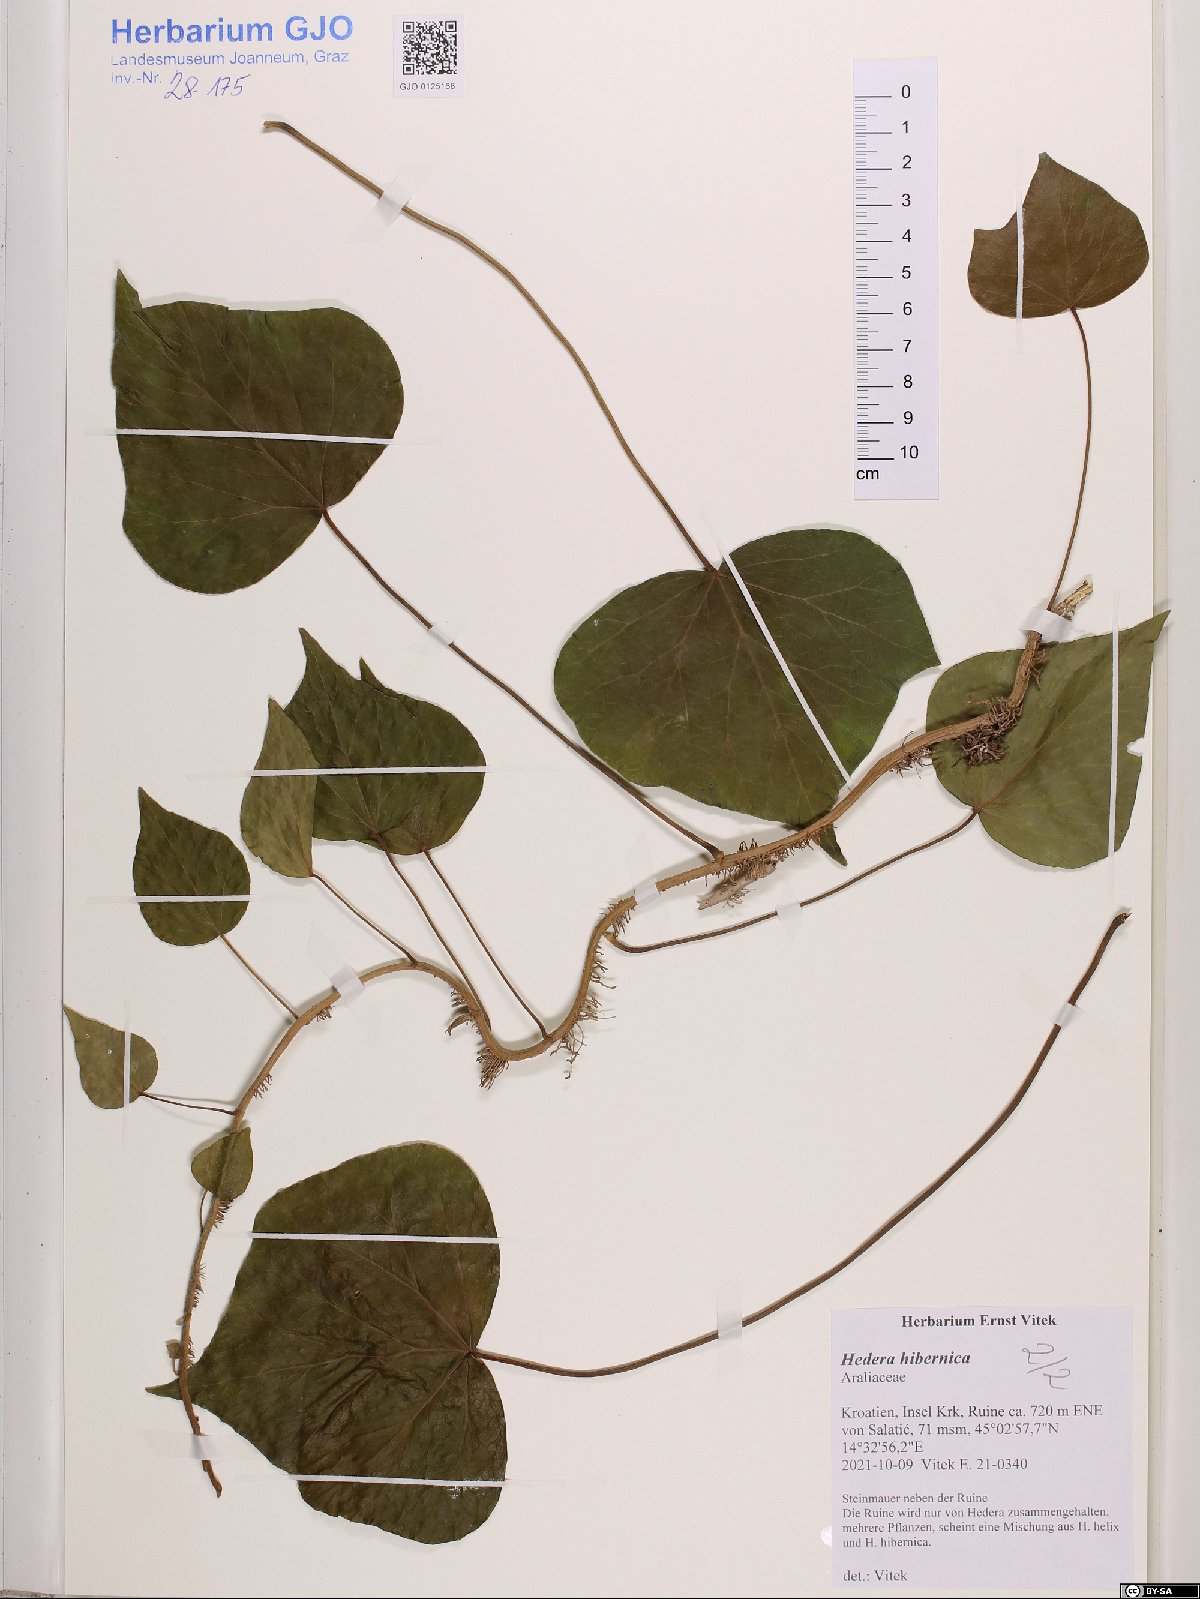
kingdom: Plantae
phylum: Tracheophyta
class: Magnoliopsida
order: Apiales
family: Araliaceae
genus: Hedera
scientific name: Hedera hibernica
